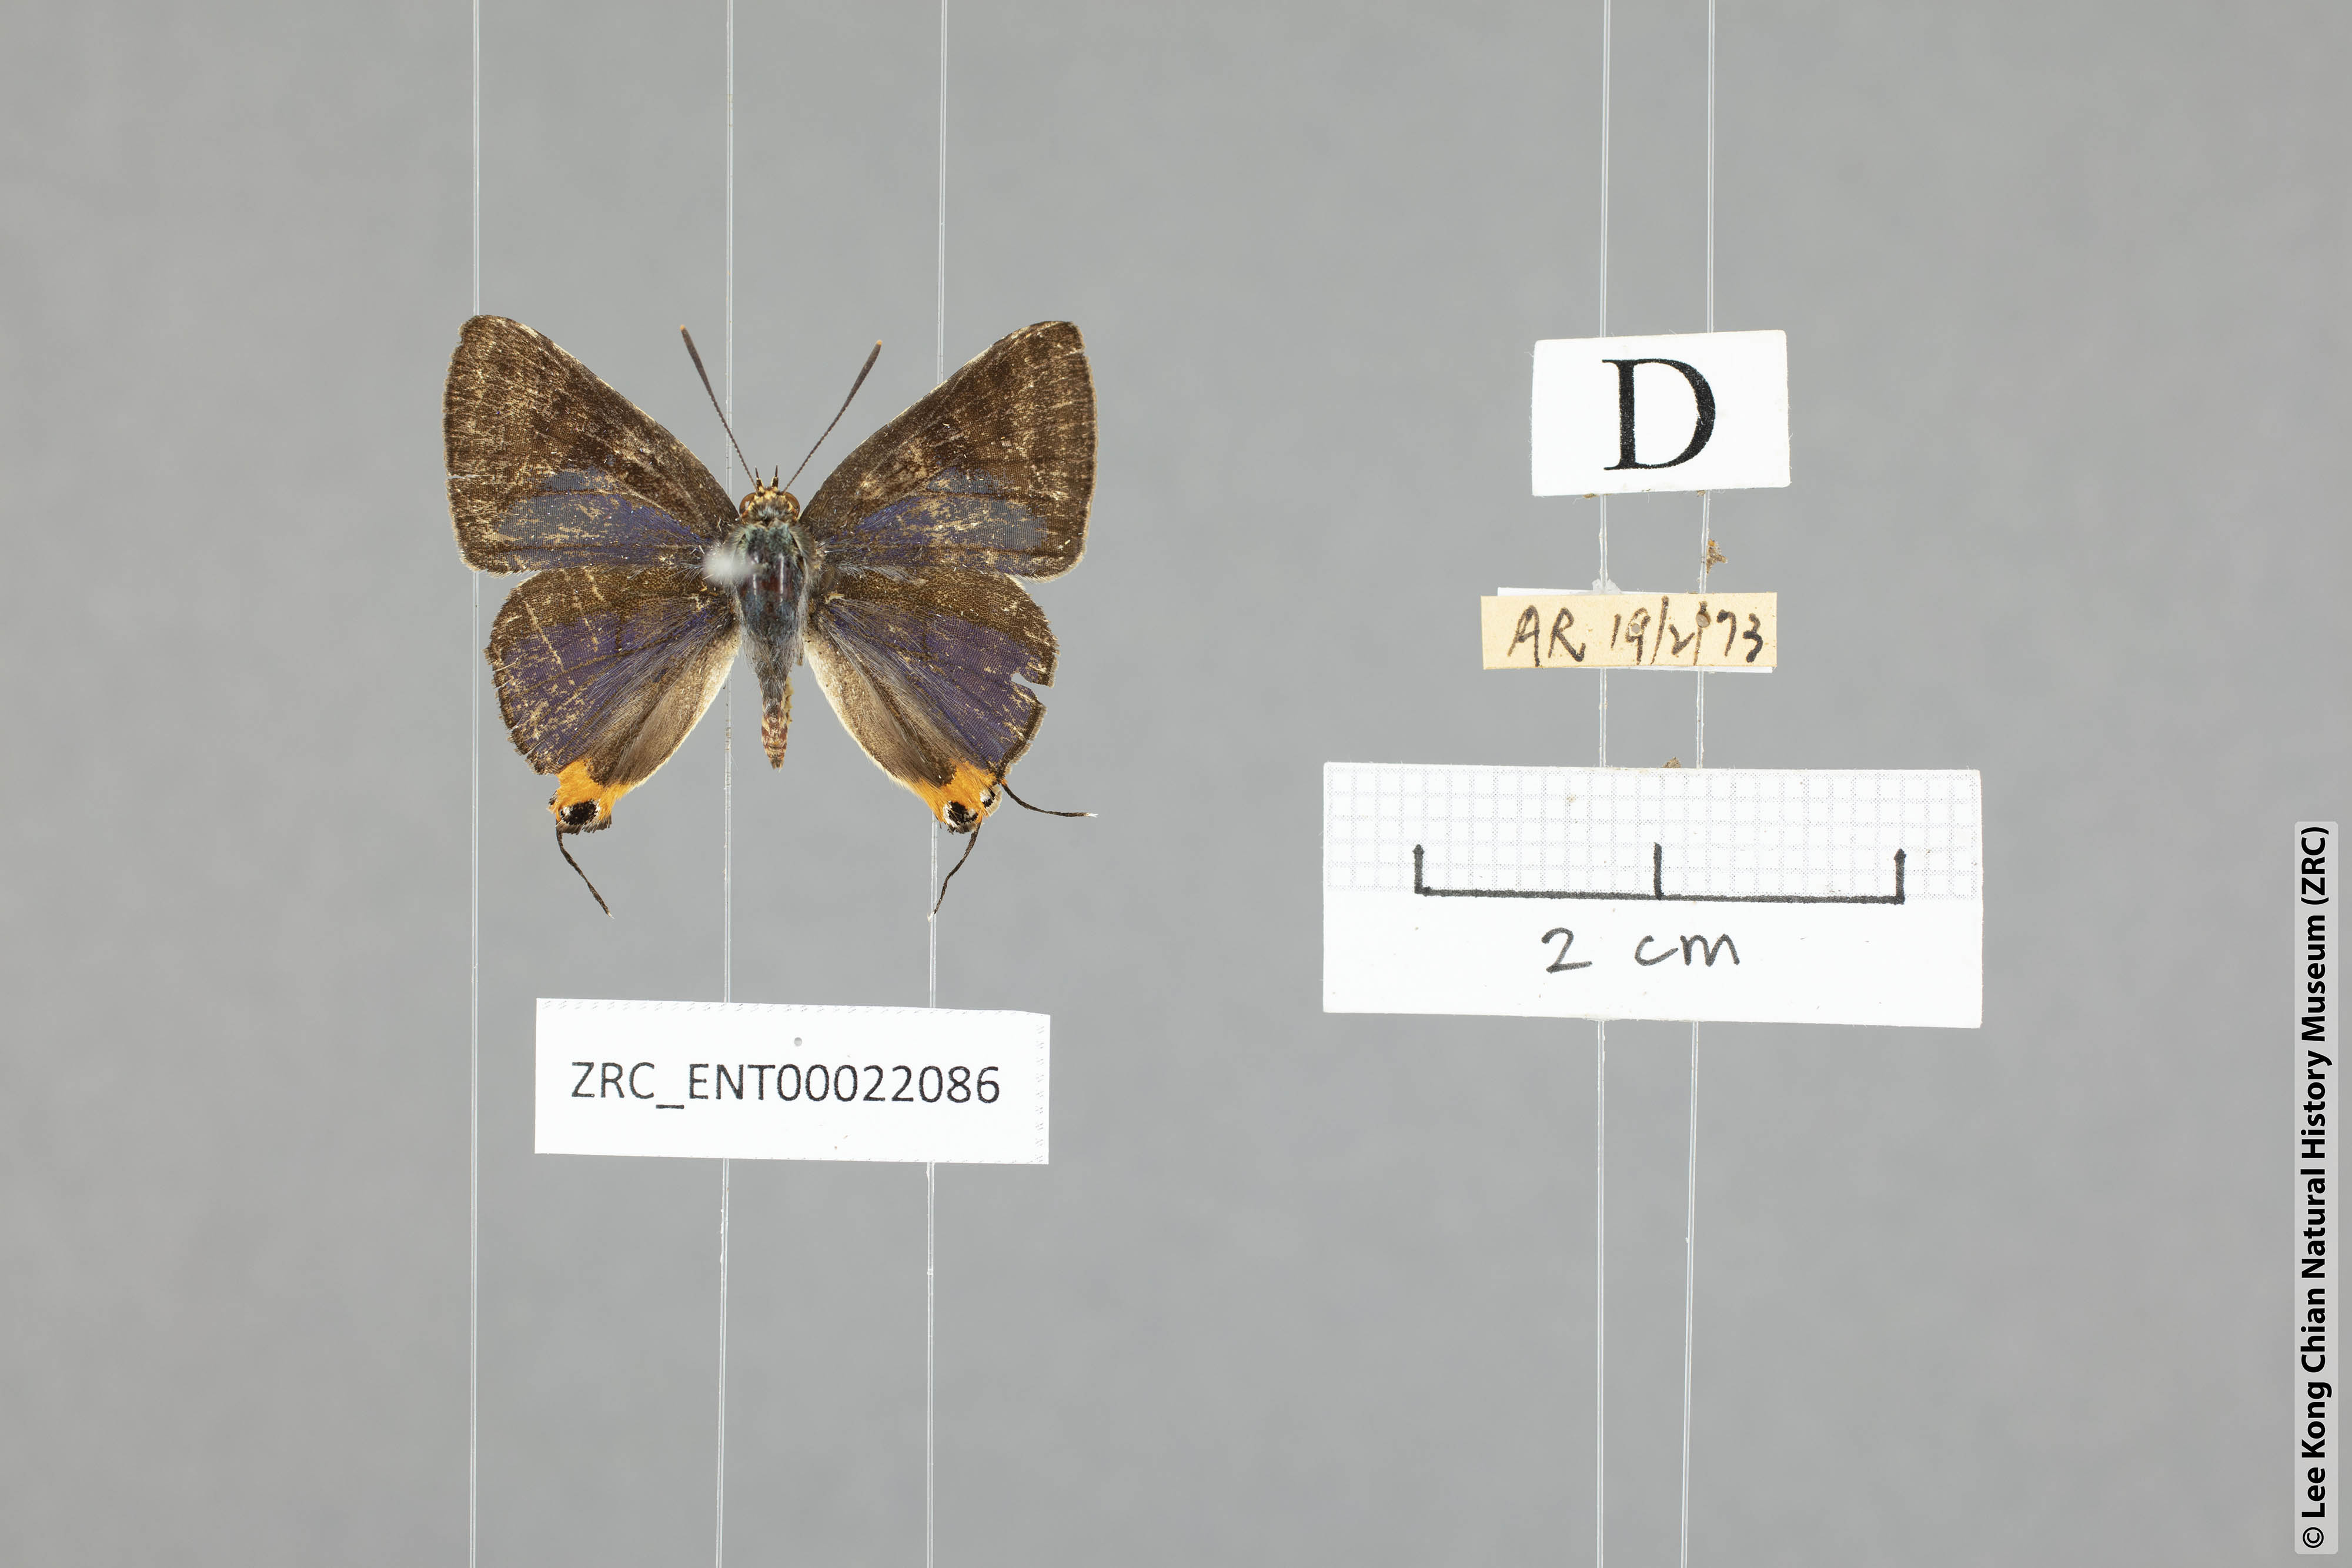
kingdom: Animalia
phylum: Arthropoda
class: Insecta
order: Lepidoptera
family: Lycaenidae
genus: Spindasis
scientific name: Spindasis syama
